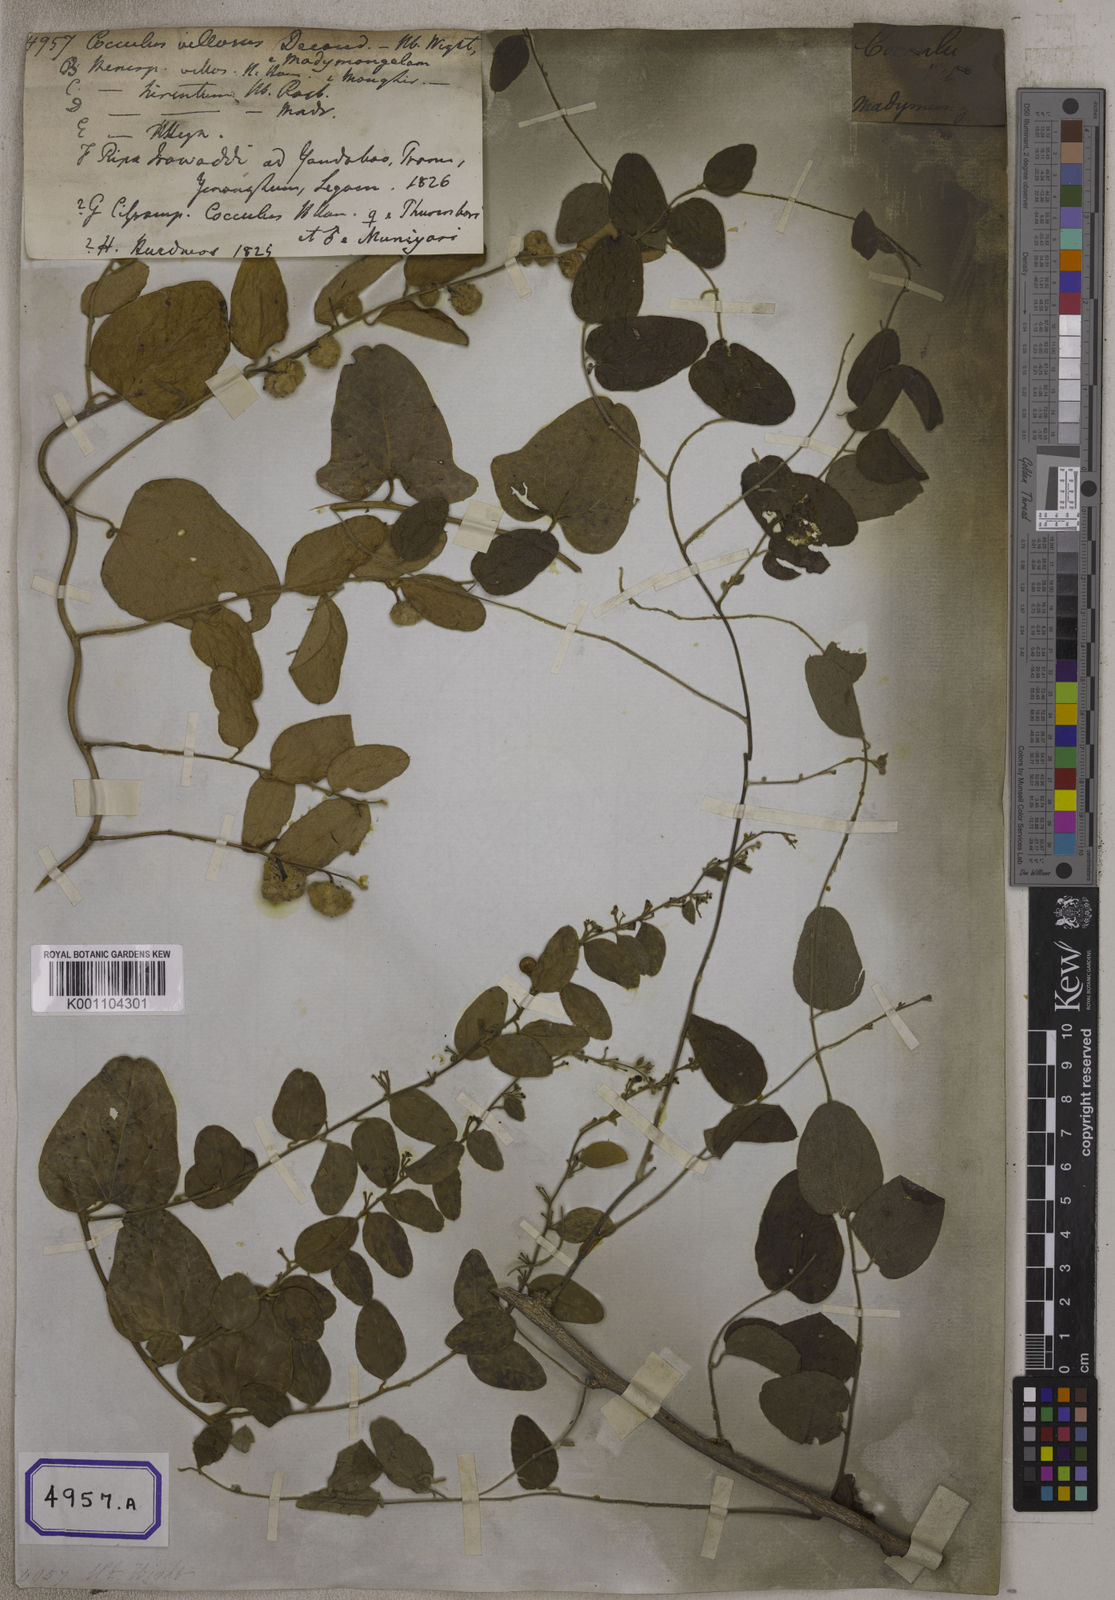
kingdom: Plantae
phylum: Tracheophyta
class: Magnoliopsida
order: Ranunculales
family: Menispermaceae
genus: Cocculus
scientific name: Cocculus hirsutus
